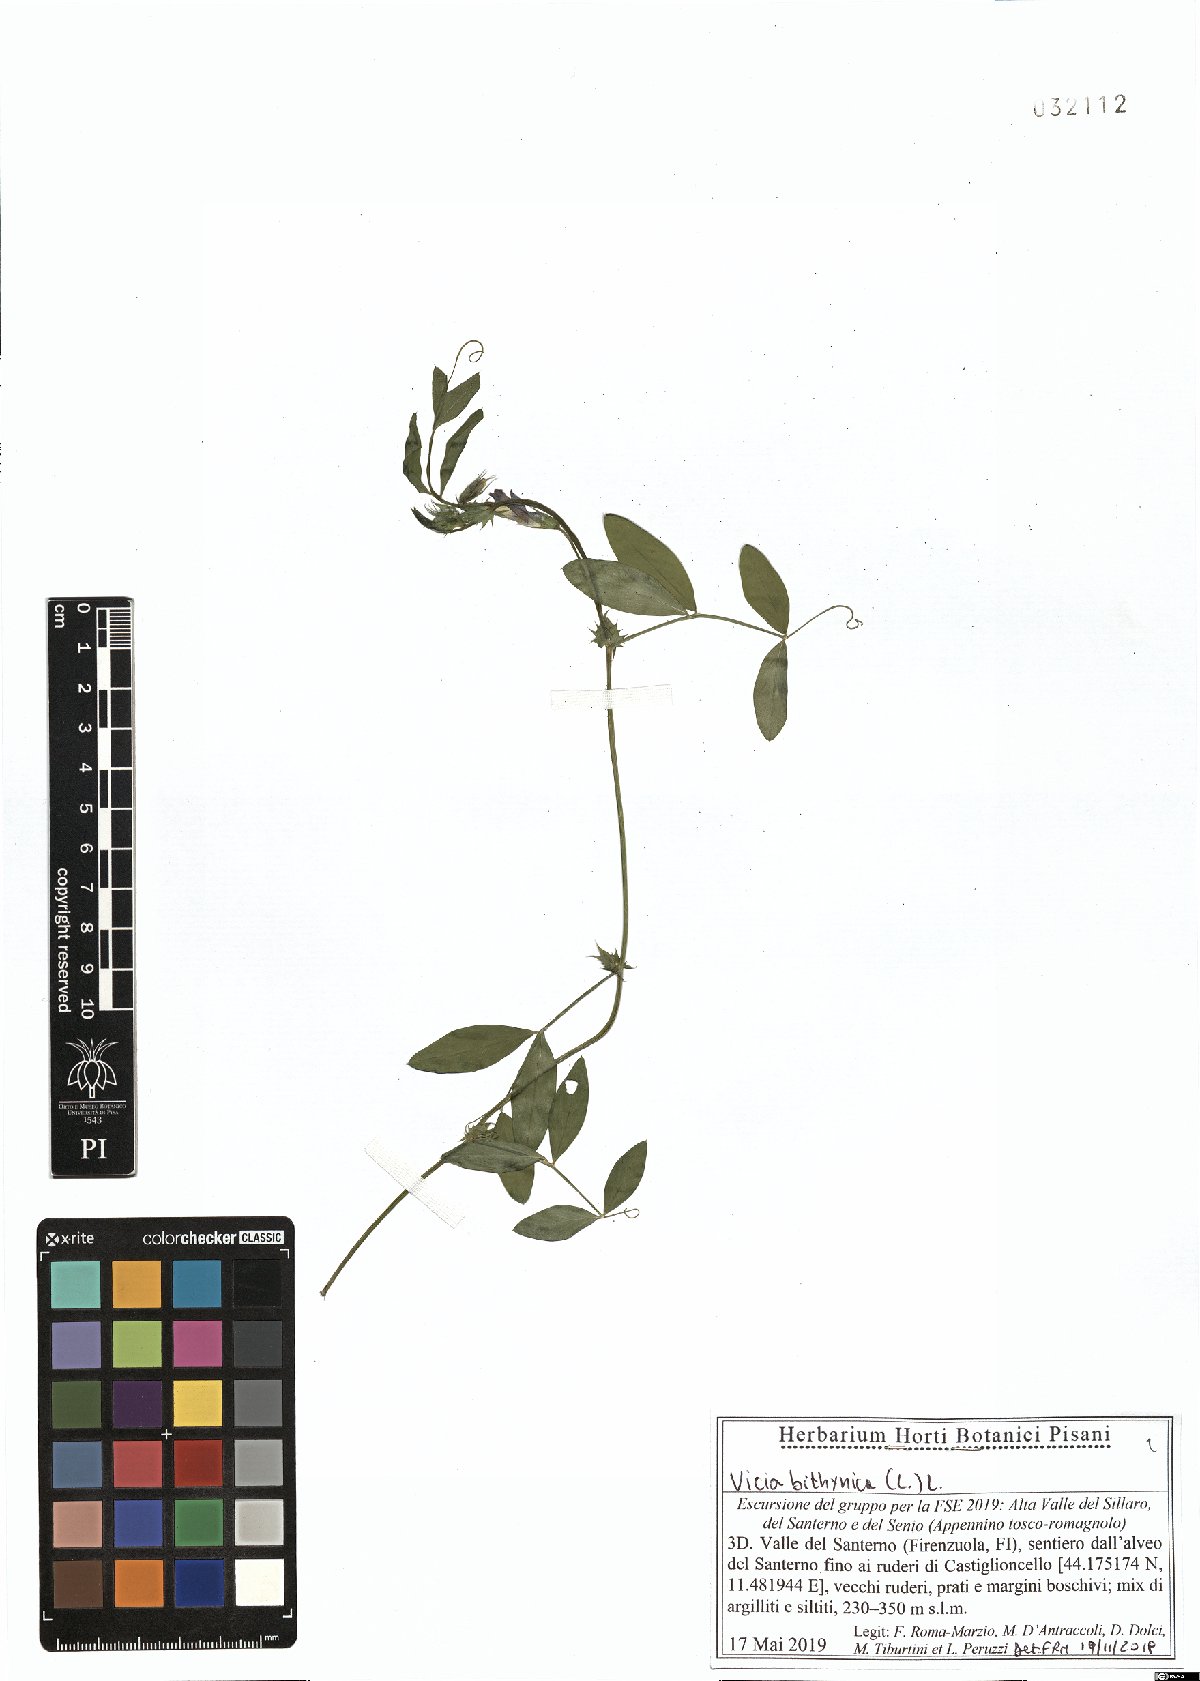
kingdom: Plantae
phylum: Tracheophyta
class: Magnoliopsida
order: Fabales
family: Fabaceae
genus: Vicia
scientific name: Vicia bithynica
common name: Bithynian vetch
